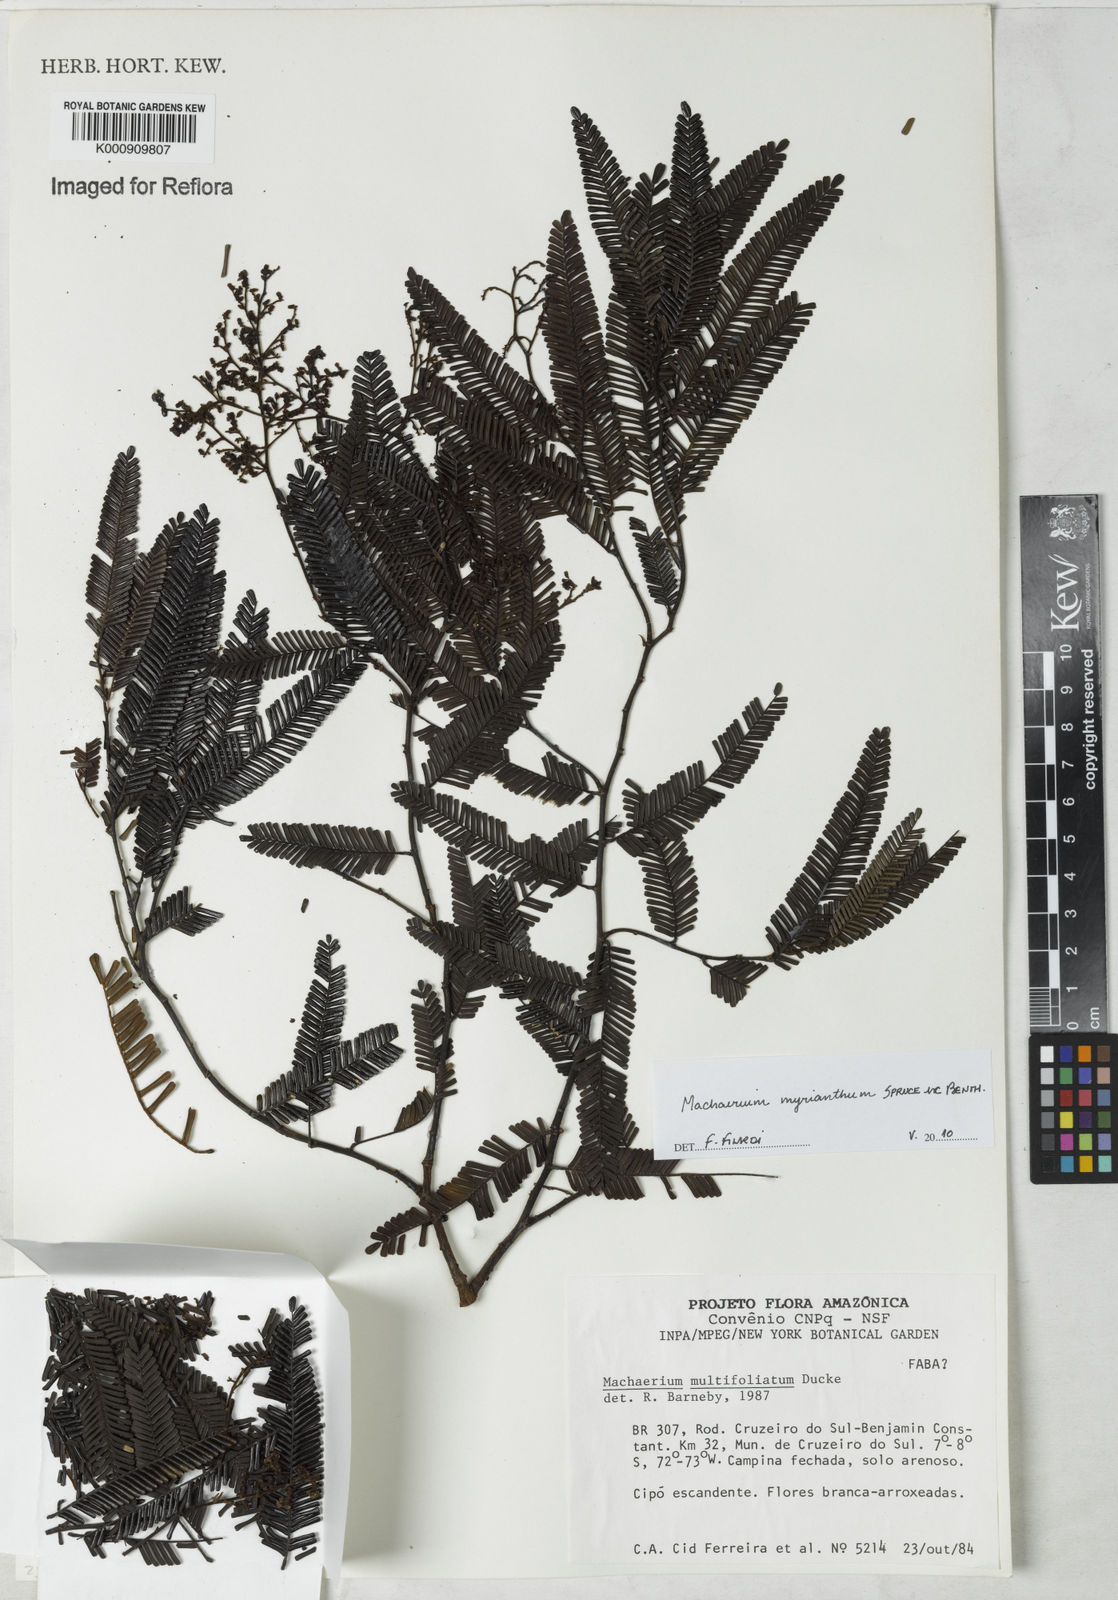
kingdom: Plantae
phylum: Tracheophyta
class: Magnoliopsida
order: Fabales
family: Fabaceae
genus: Machaerium
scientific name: Machaerium multifoliolatum
